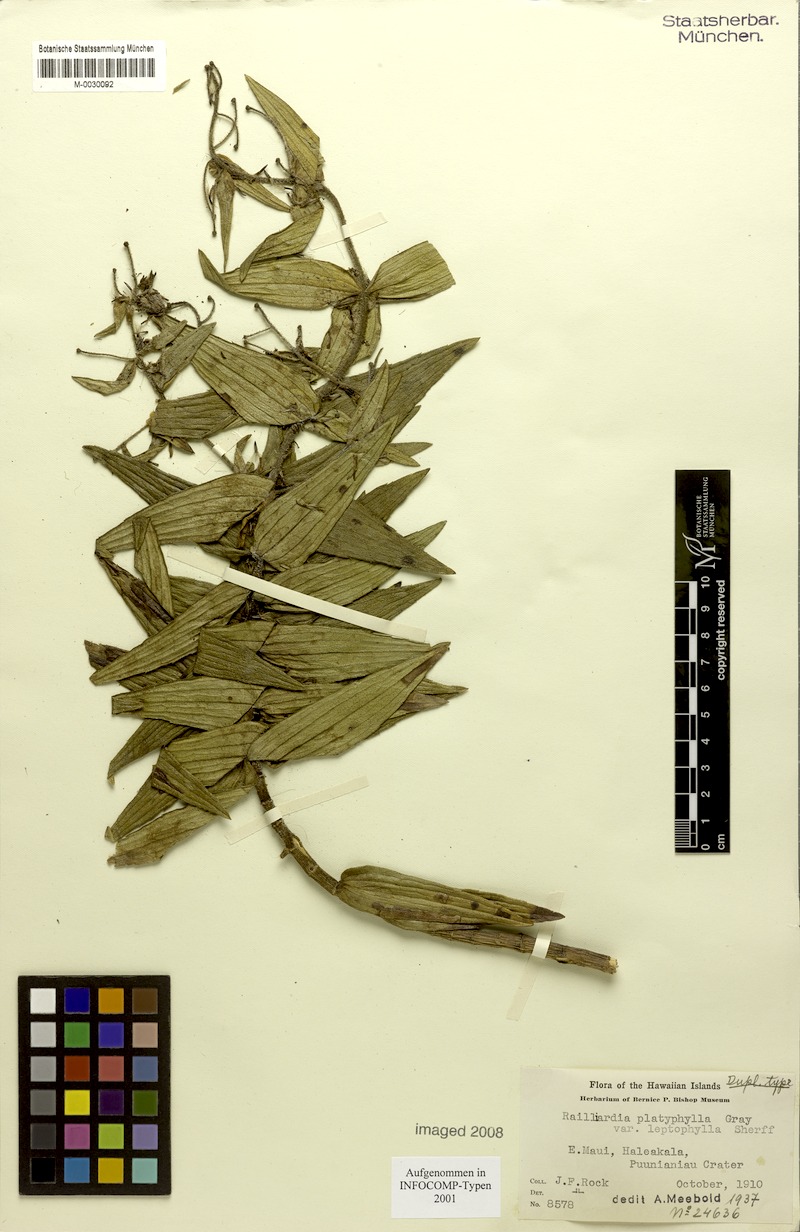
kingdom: Plantae
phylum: Tracheophyta
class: Magnoliopsida
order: Asterales
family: Asteraceae
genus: Dubautia
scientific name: Dubautia platyphylla
